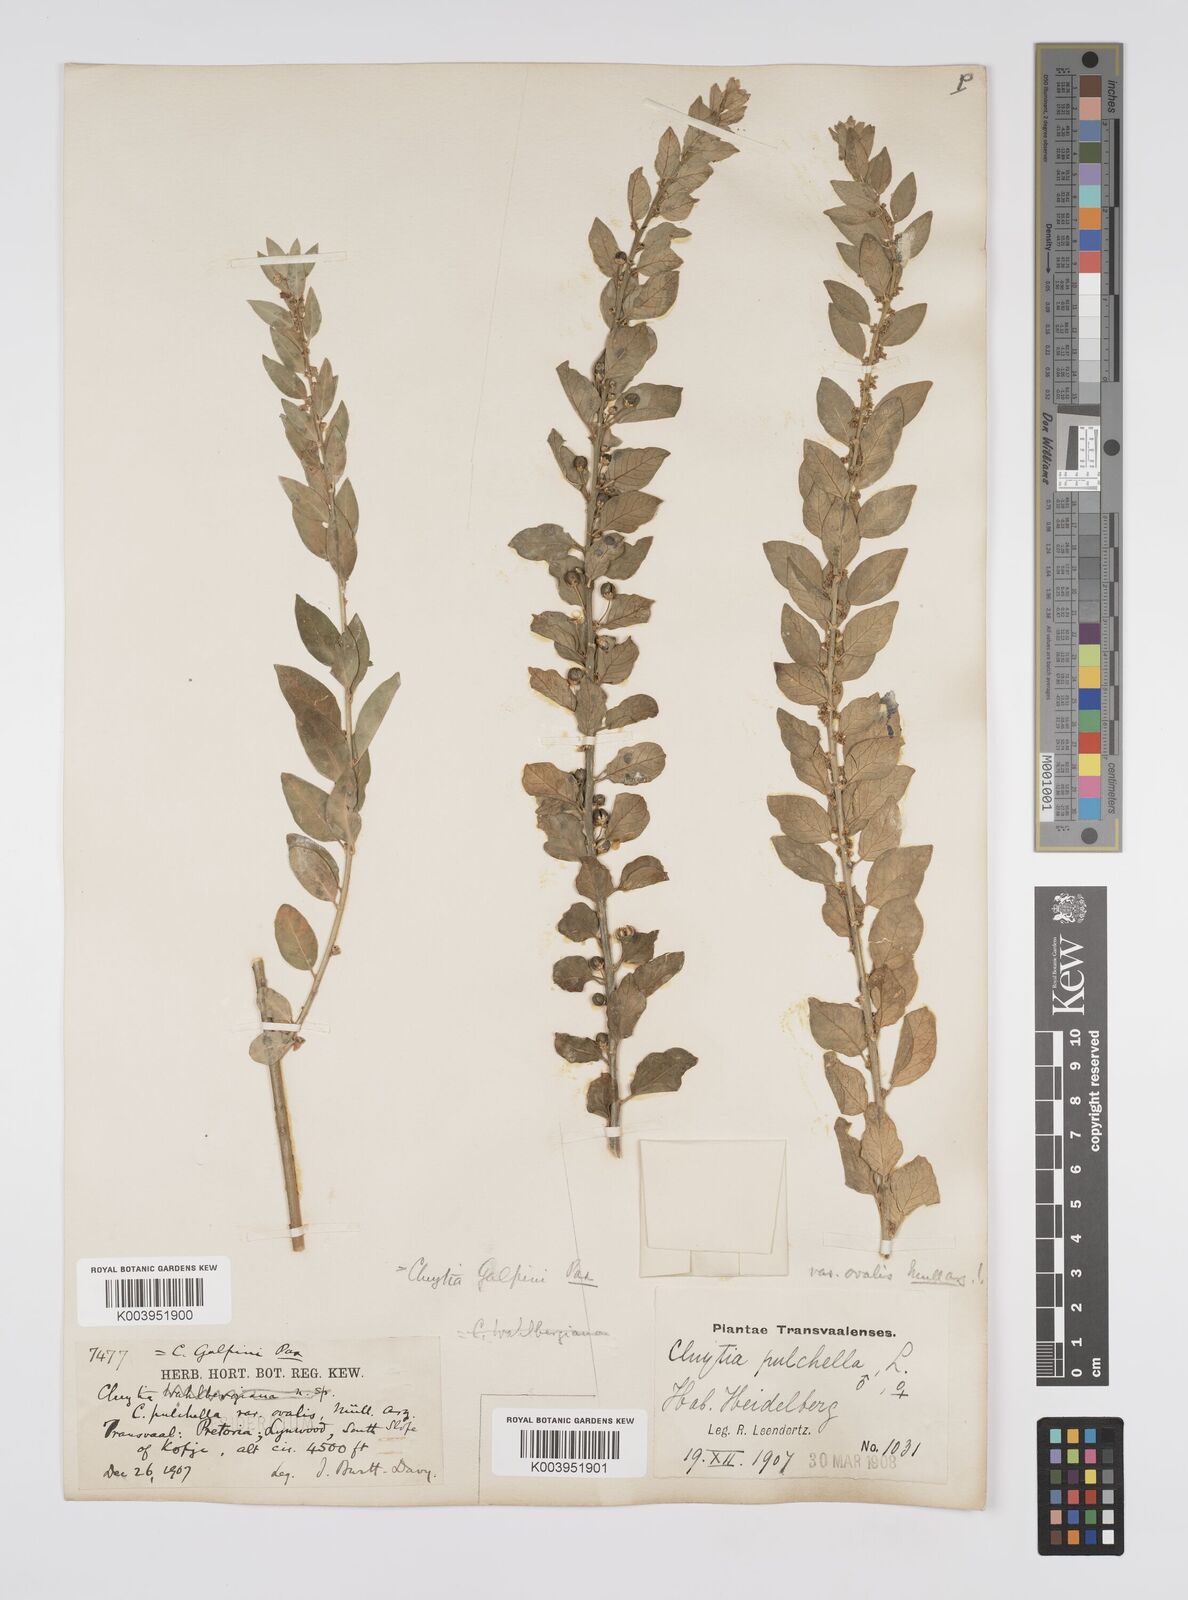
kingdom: Plantae
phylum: Tracheophyta
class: Magnoliopsida
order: Malpighiales
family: Peraceae
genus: Clutia
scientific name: Clutia galpinii
